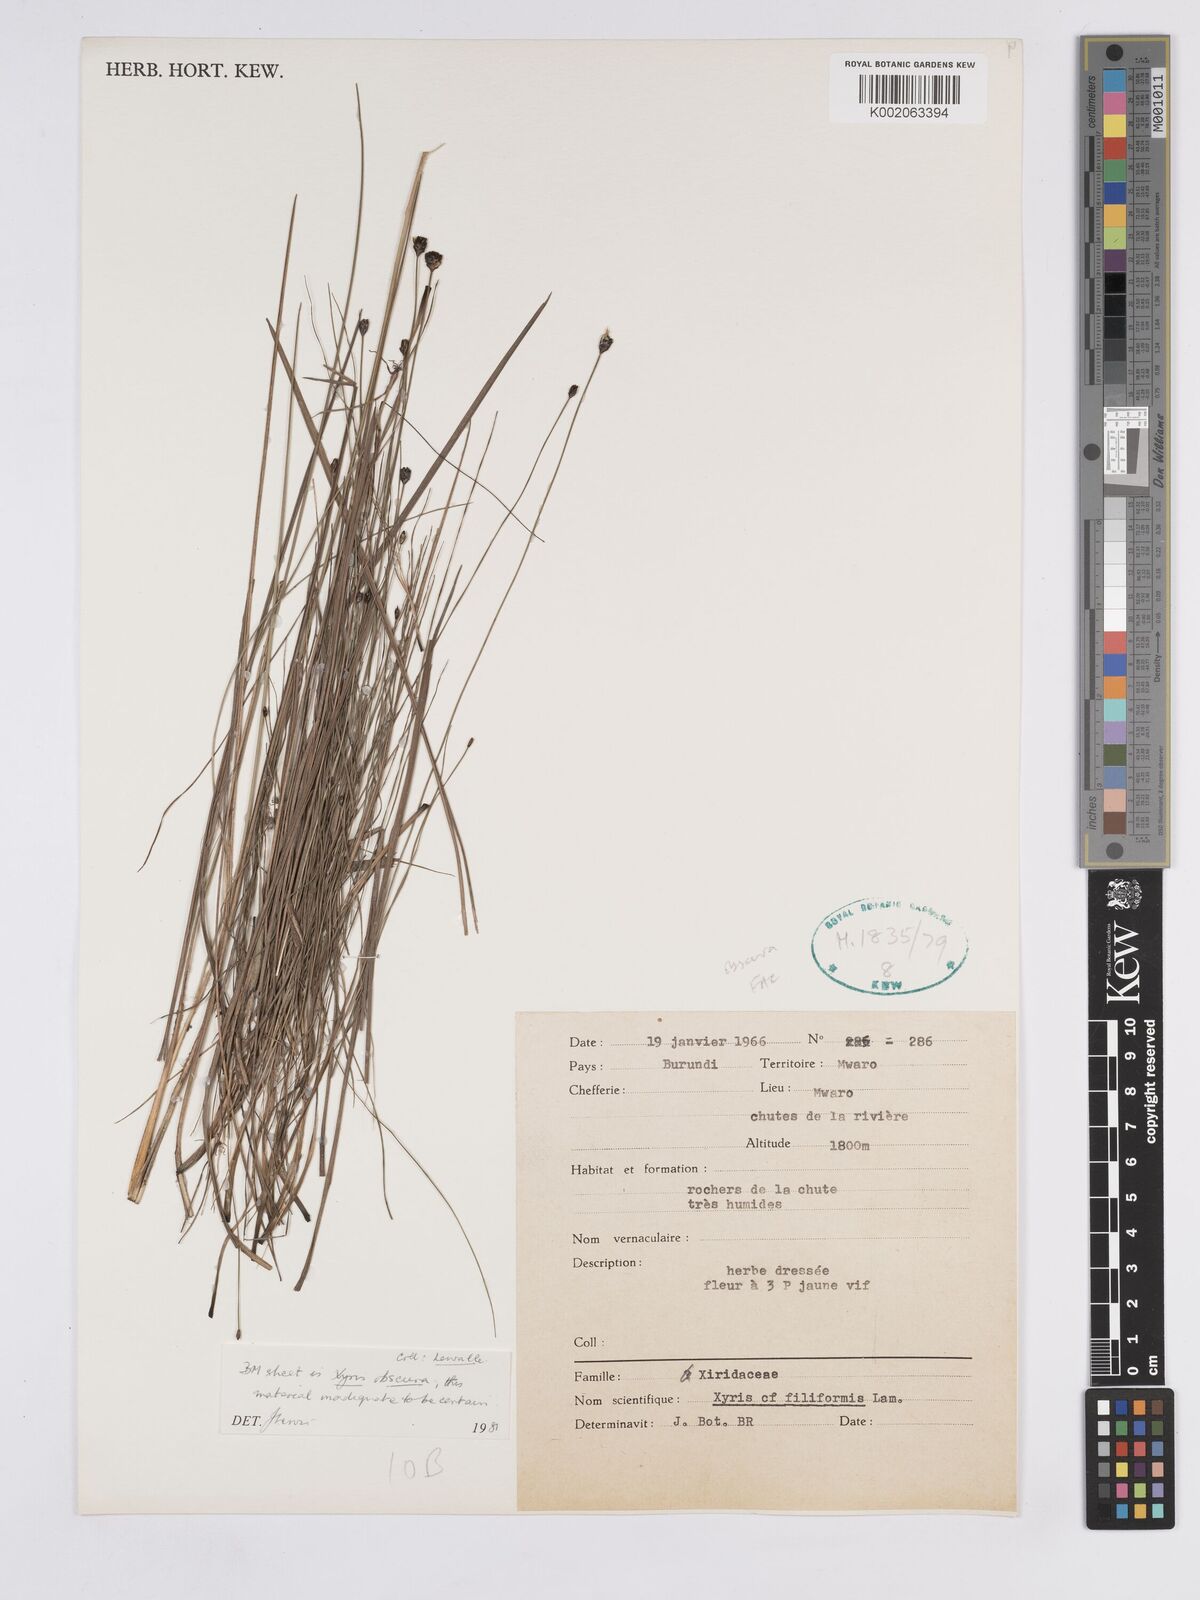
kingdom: Plantae
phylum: Tracheophyta
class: Liliopsida
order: Poales
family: Xyridaceae
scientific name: Xyridaceae
